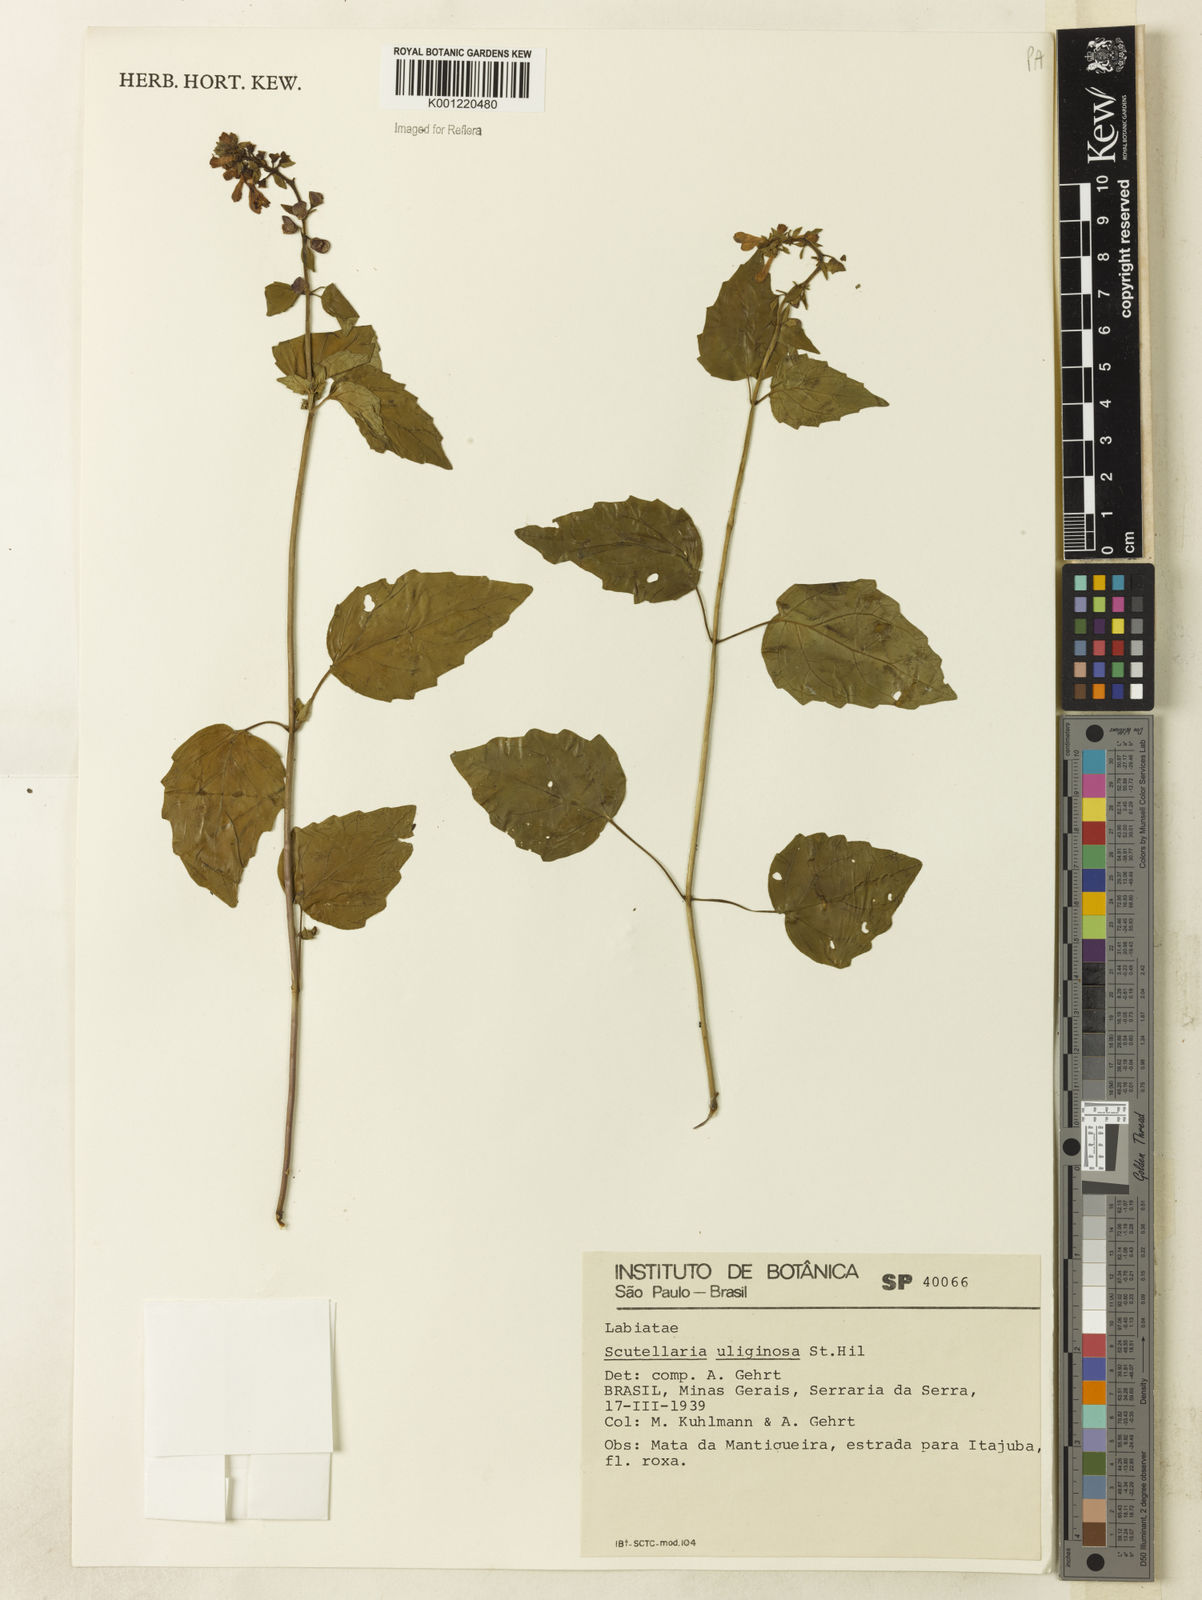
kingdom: Plantae
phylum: Tracheophyta
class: Magnoliopsida
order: Lamiales
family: Lamiaceae
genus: Scutellaria
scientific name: Scutellaria uliginosa
